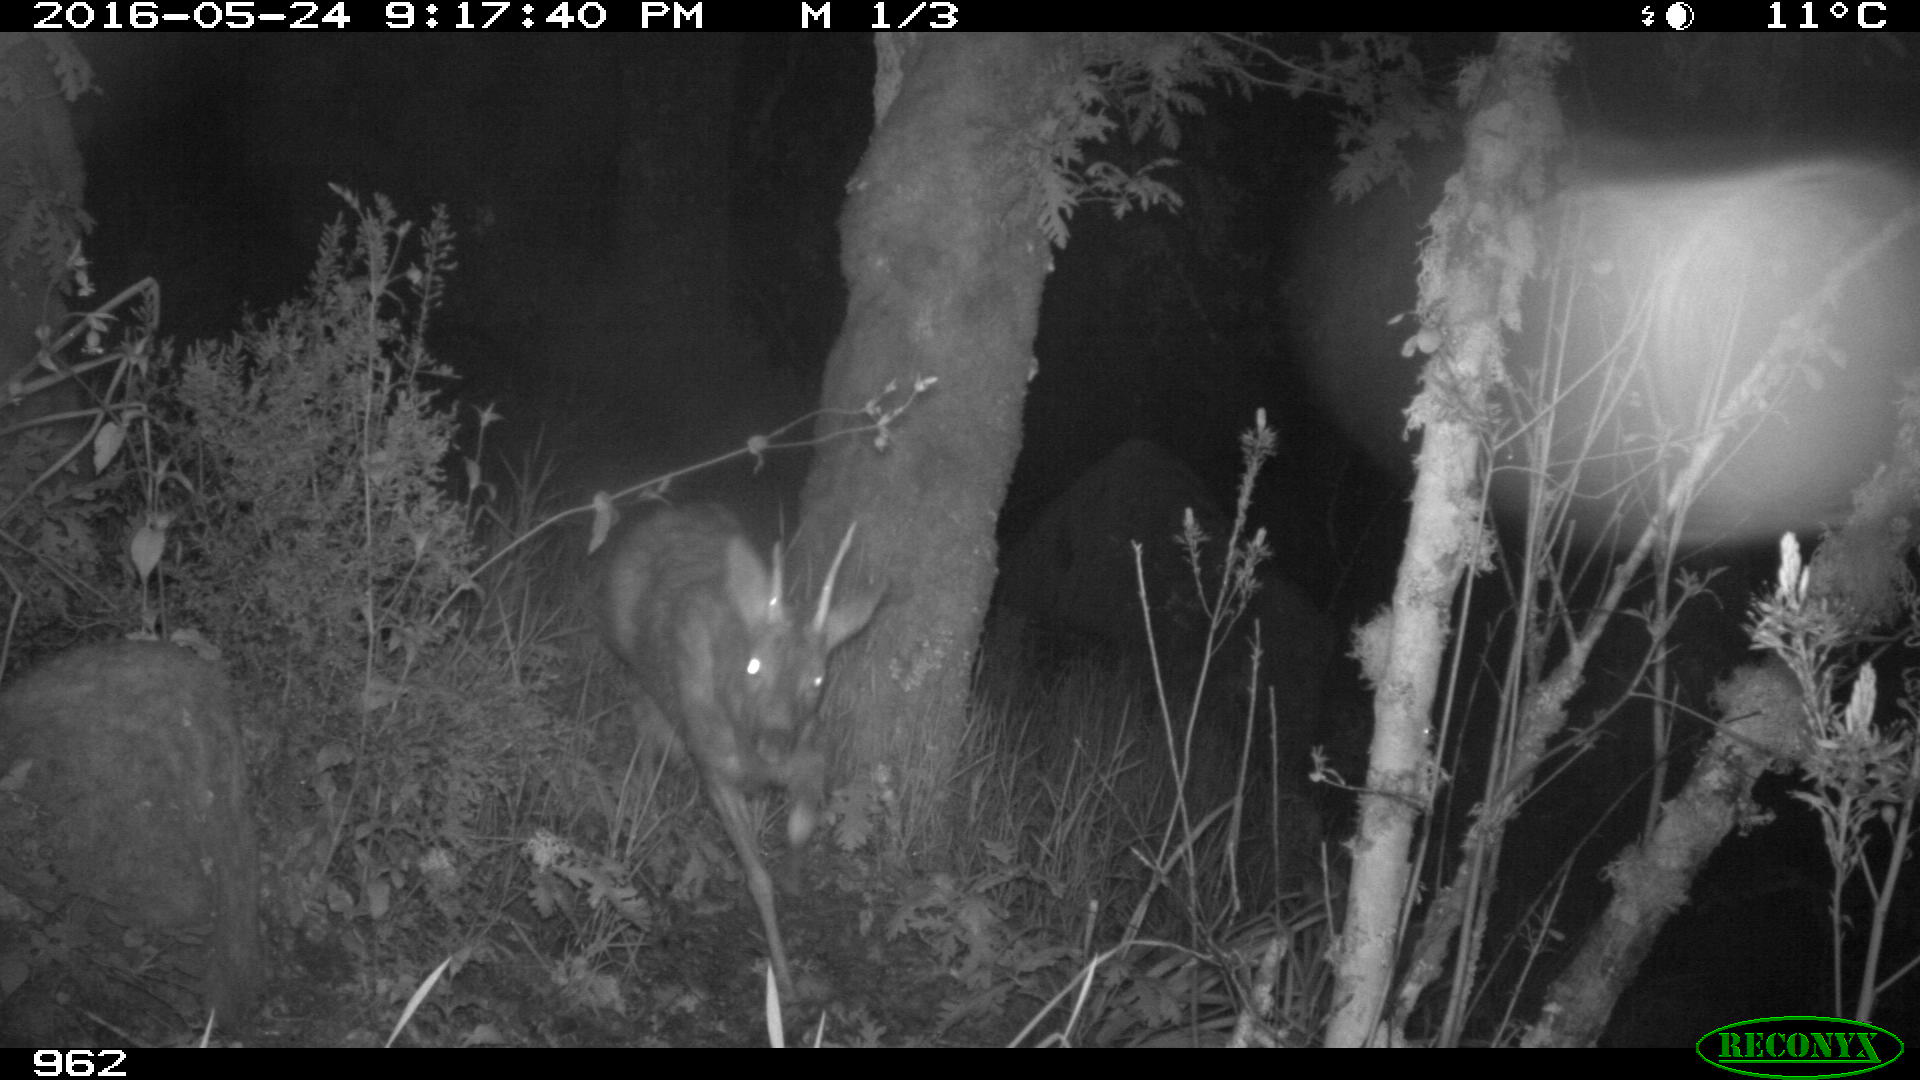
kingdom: Animalia
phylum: Chordata
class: Mammalia
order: Artiodactyla
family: Cervidae
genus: Capreolus
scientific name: Capreolus capreolus
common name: Western roe deer
